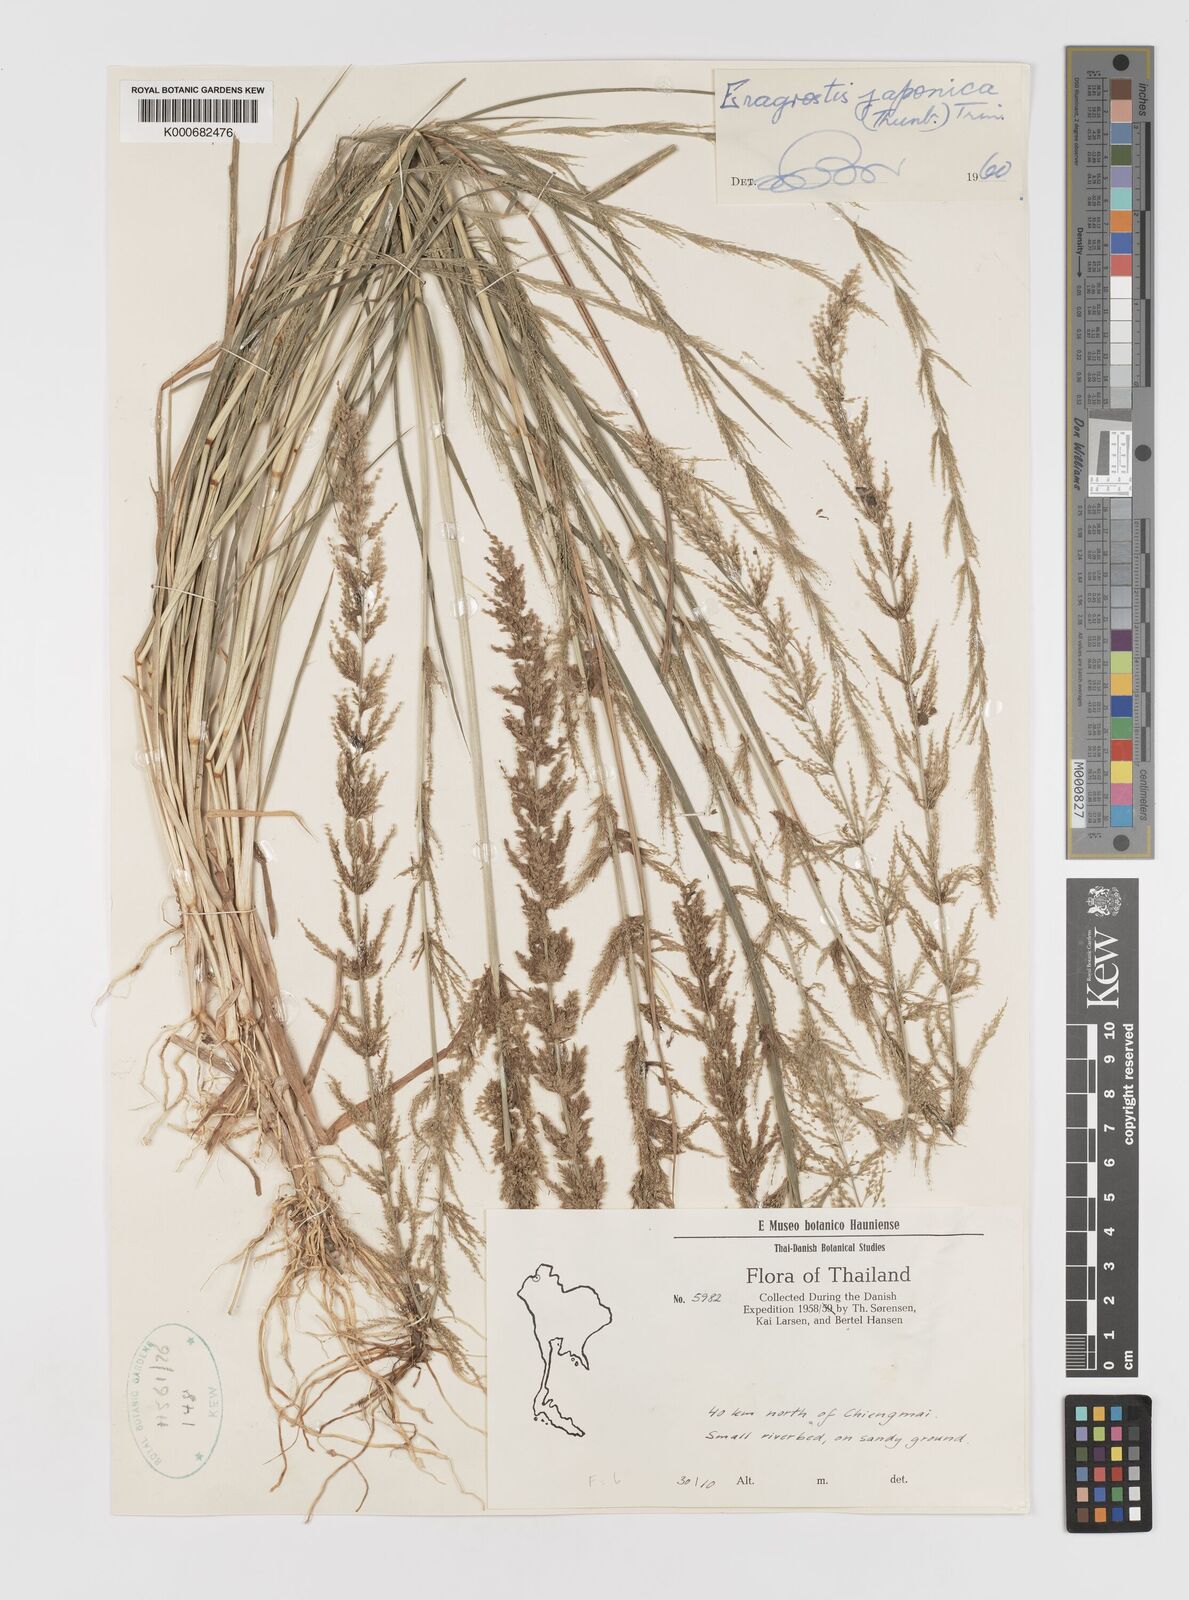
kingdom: Plantae
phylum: Tracheophyta
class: Liliopsida
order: Poales
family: Poaceae
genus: Eragrostis
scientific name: Eragrostis japonica
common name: Pond lovegrass
